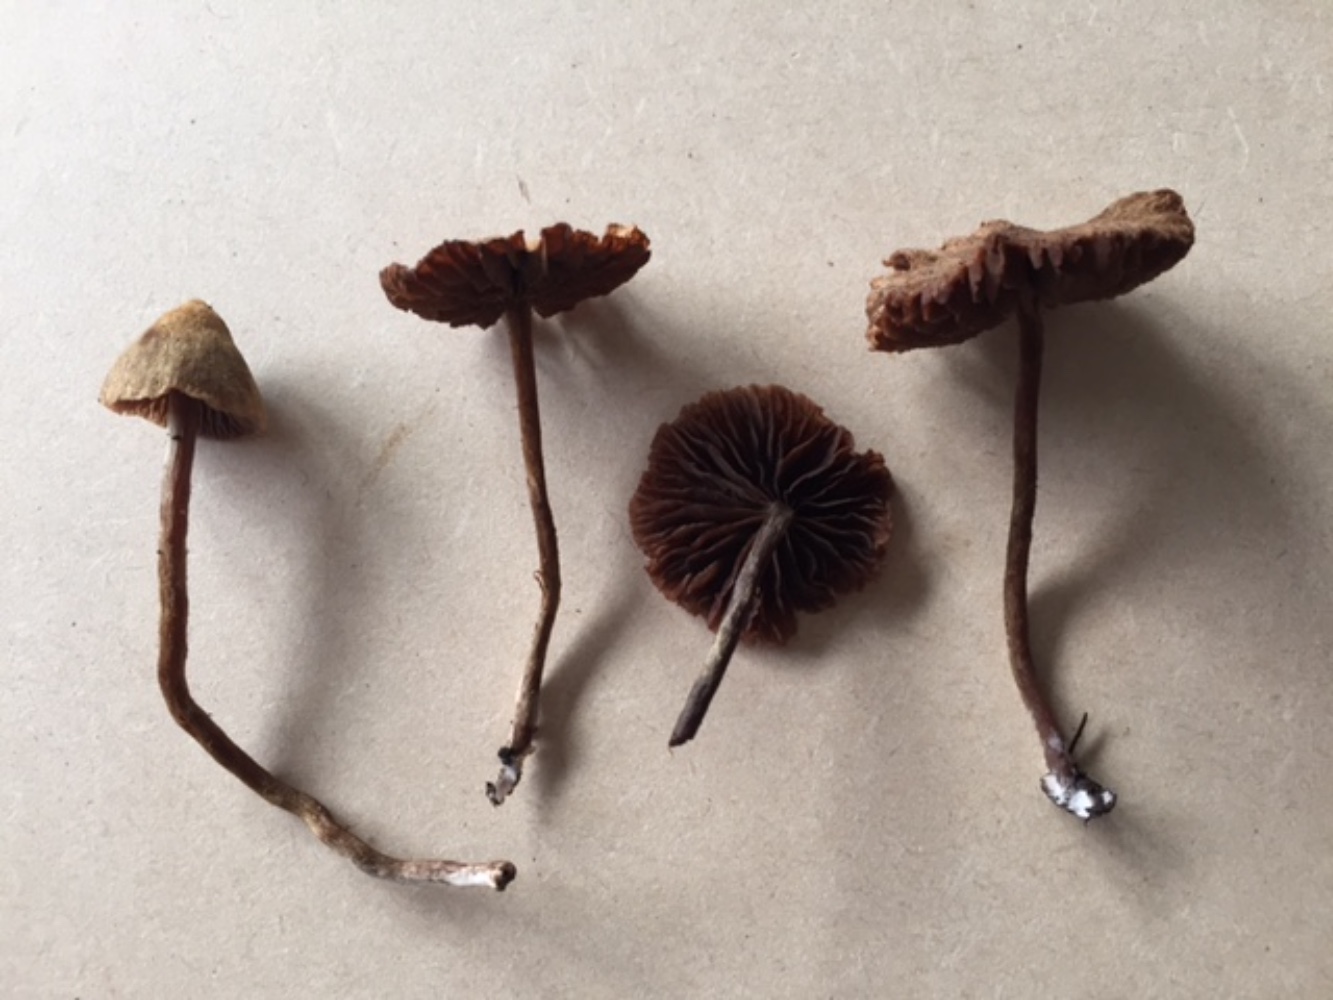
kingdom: Fungi
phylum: Basidiomycota
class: Agaricomycetes
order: Agaricales
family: Cortinariaceae
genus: Cortinarius
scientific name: Cortinarius helvelloides
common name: fjernbladet slørhat
